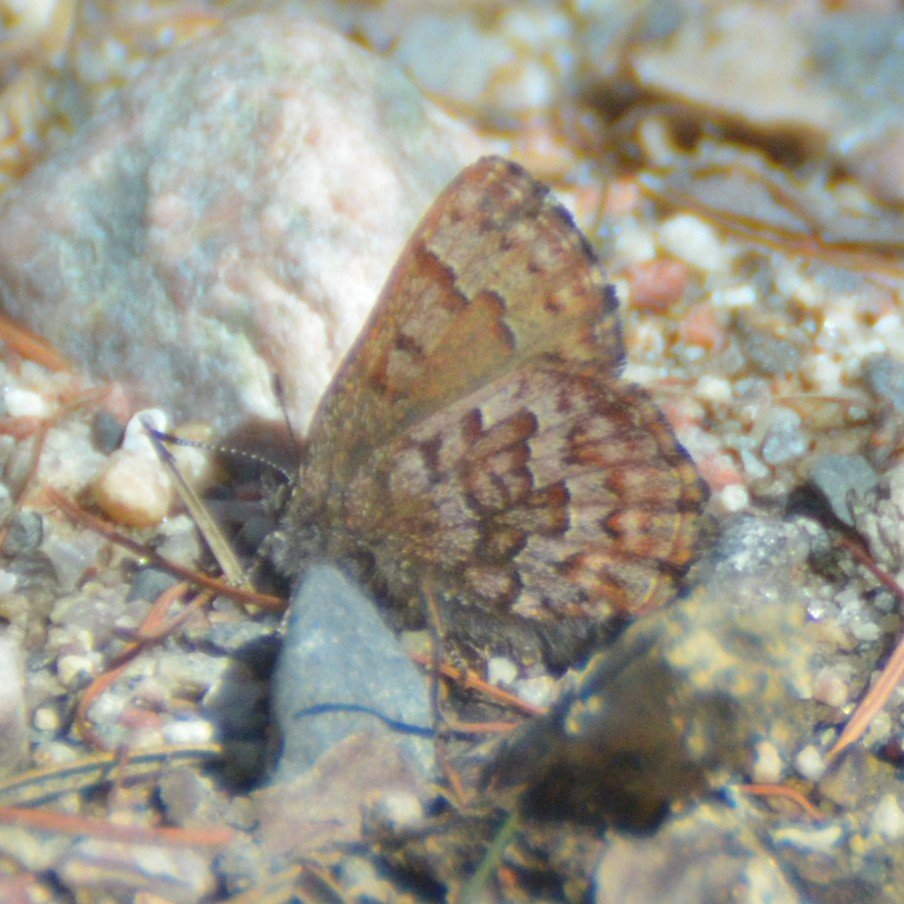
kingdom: Animalia
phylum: Arthropoda
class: Insecta
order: Lepidoptera
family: Lycaenidae
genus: Incisalia
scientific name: Incisalia niphon
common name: Eastern Pine Elfin
